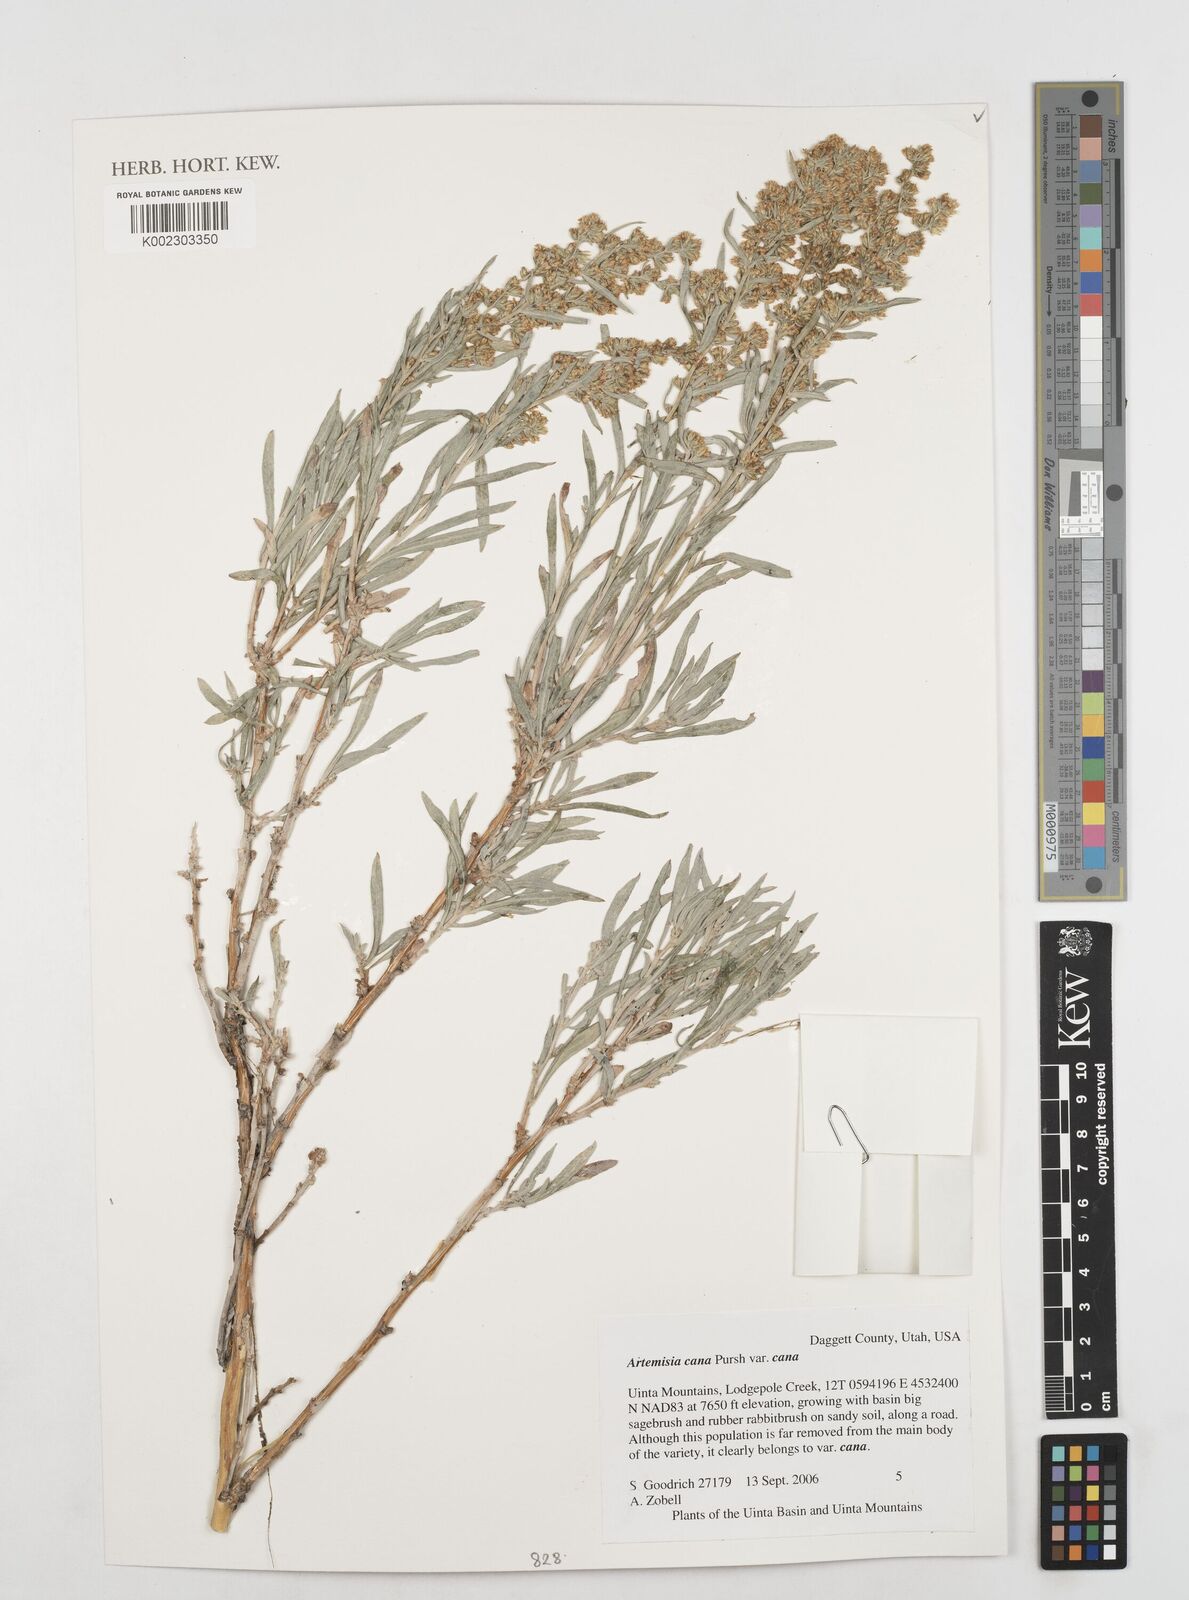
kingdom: Plantae
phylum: Tracheophyta
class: Magnoliopsida
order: Asterales
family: Asteraceae
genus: Artemisia
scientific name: Artemisia cana
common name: Silver sagebrush
